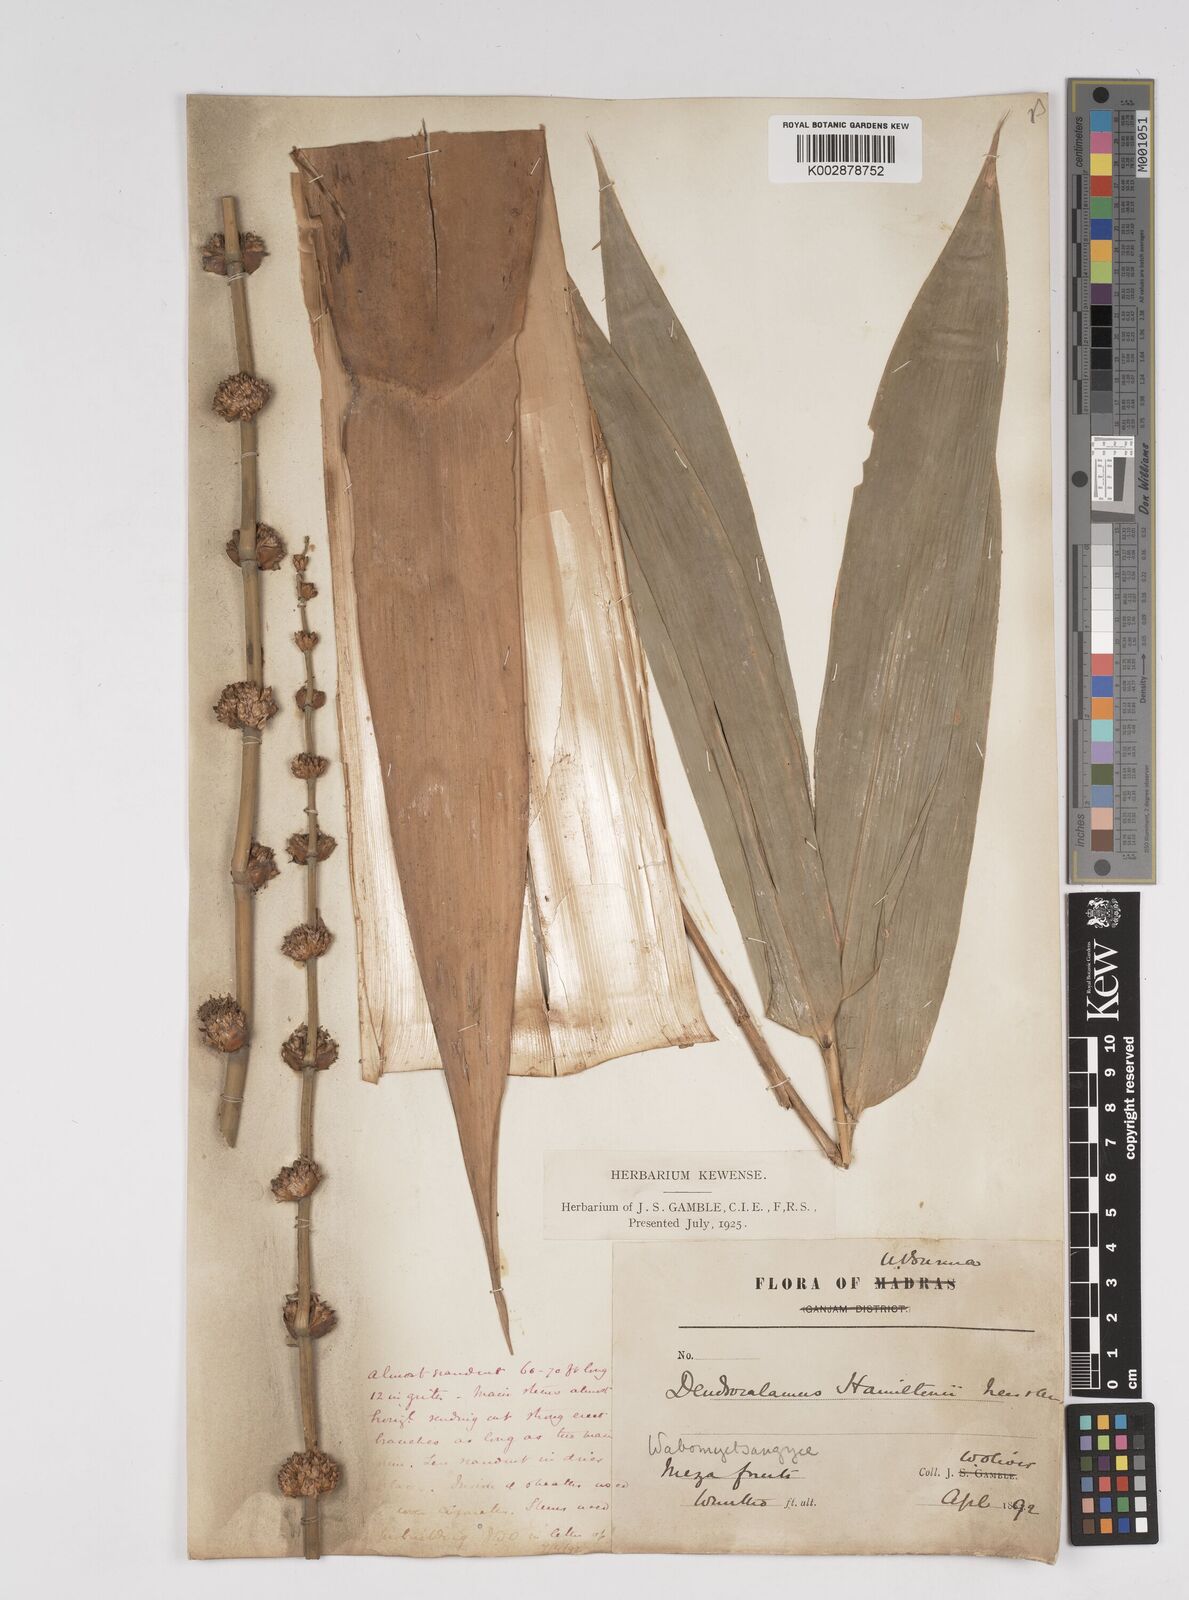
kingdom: Plantae
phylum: Tracheophyta
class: Liliopsida
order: Poales
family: Poaceae
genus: Dendrocalamus
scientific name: Dendrocalamus hamiltonii
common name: Tama bamboo
